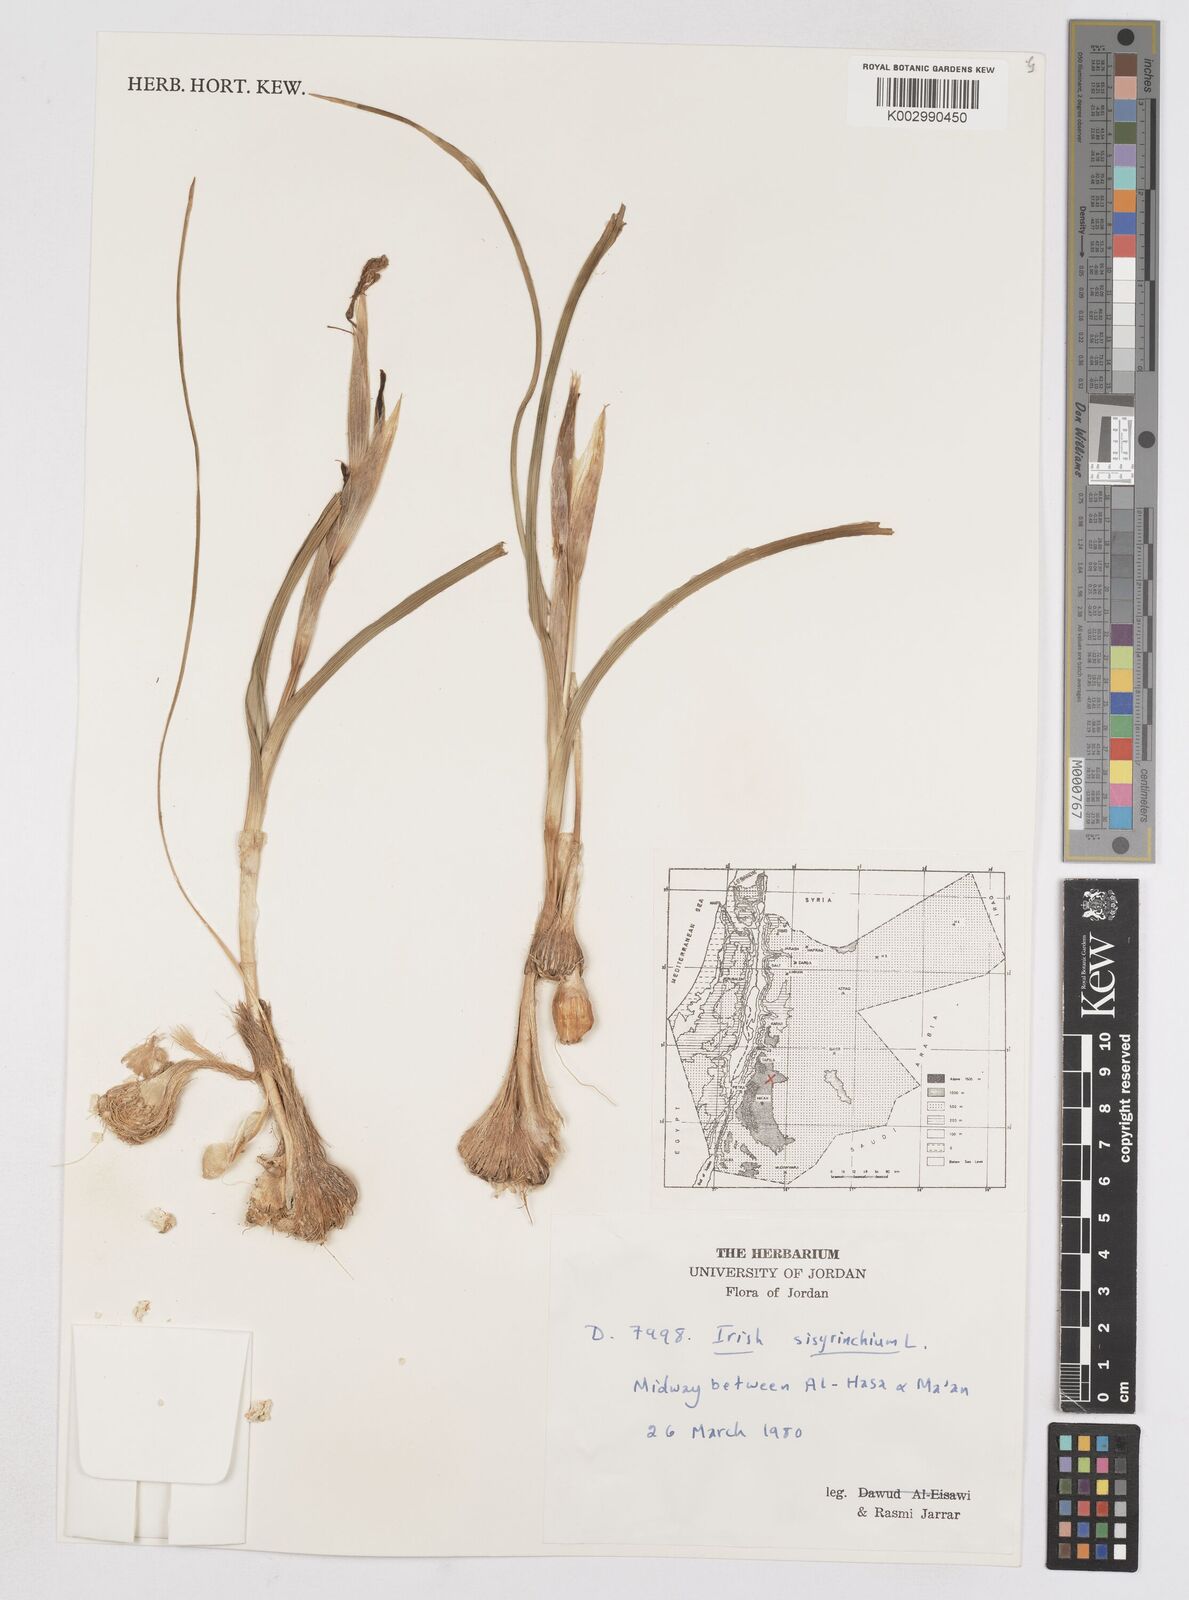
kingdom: Plantae
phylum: Tracheophyta
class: Liliopsida
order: Asparagales
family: Iridaceae
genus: Moraea
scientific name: Moraea sisyrinchium
